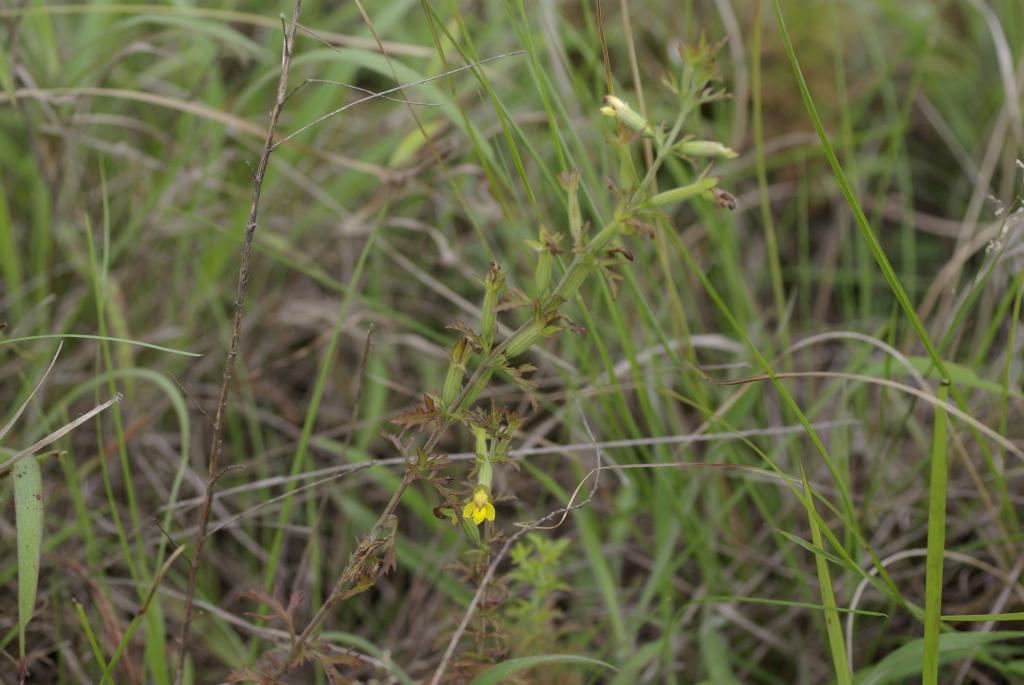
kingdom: Plantae
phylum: Tracheophyta
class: Magnoliopsida
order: Lamiales
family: Orobanchaceae
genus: Siphonostegia
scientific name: Siphonostegia chinensis
